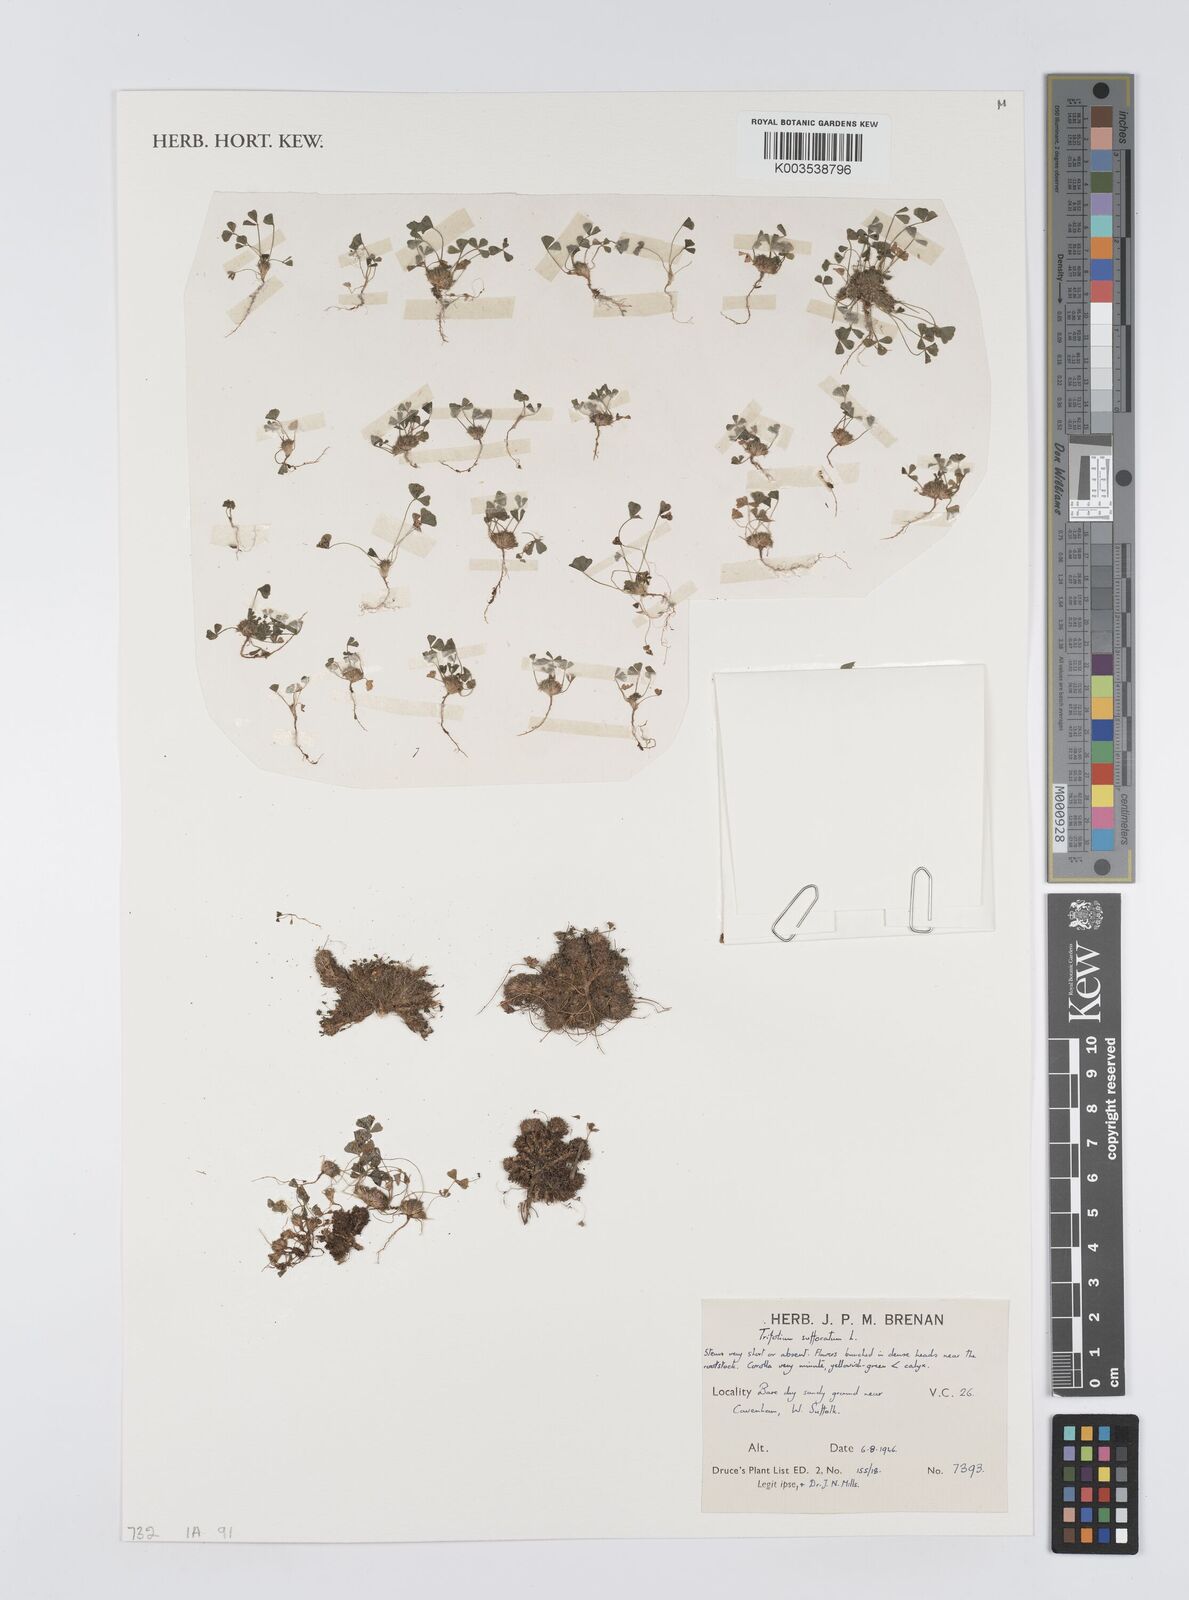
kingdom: Plantae
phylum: Tracheophyta
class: Magnoliopsida
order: Fabales
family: Fabaceae
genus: Trifolium
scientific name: Trifolium suffocatum
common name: Suffocated clover
